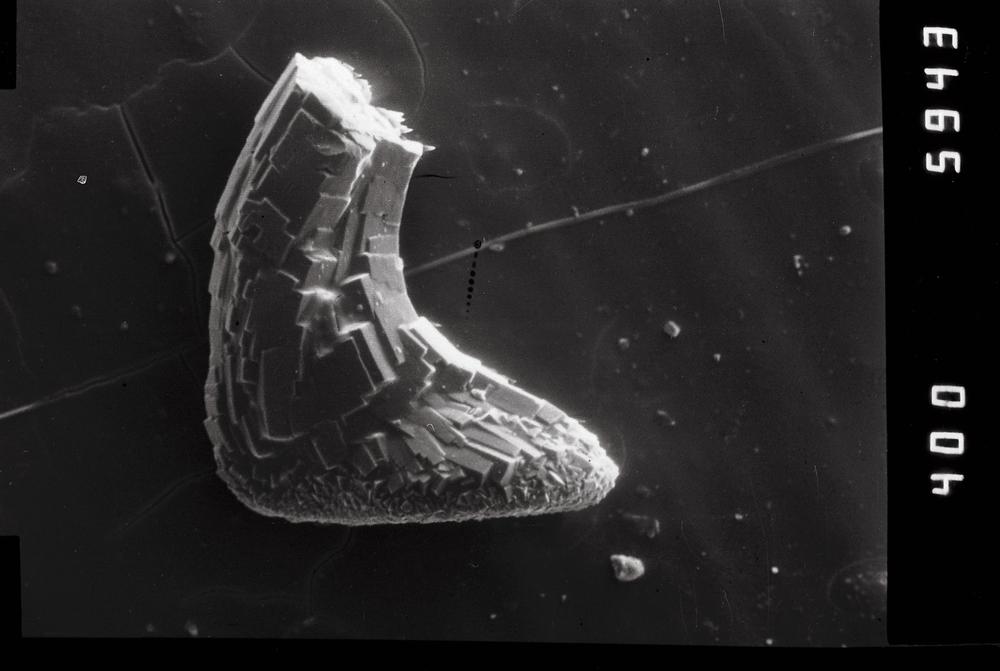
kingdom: Animalia
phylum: Chordata
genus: Paroistodus
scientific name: Paroistodus
